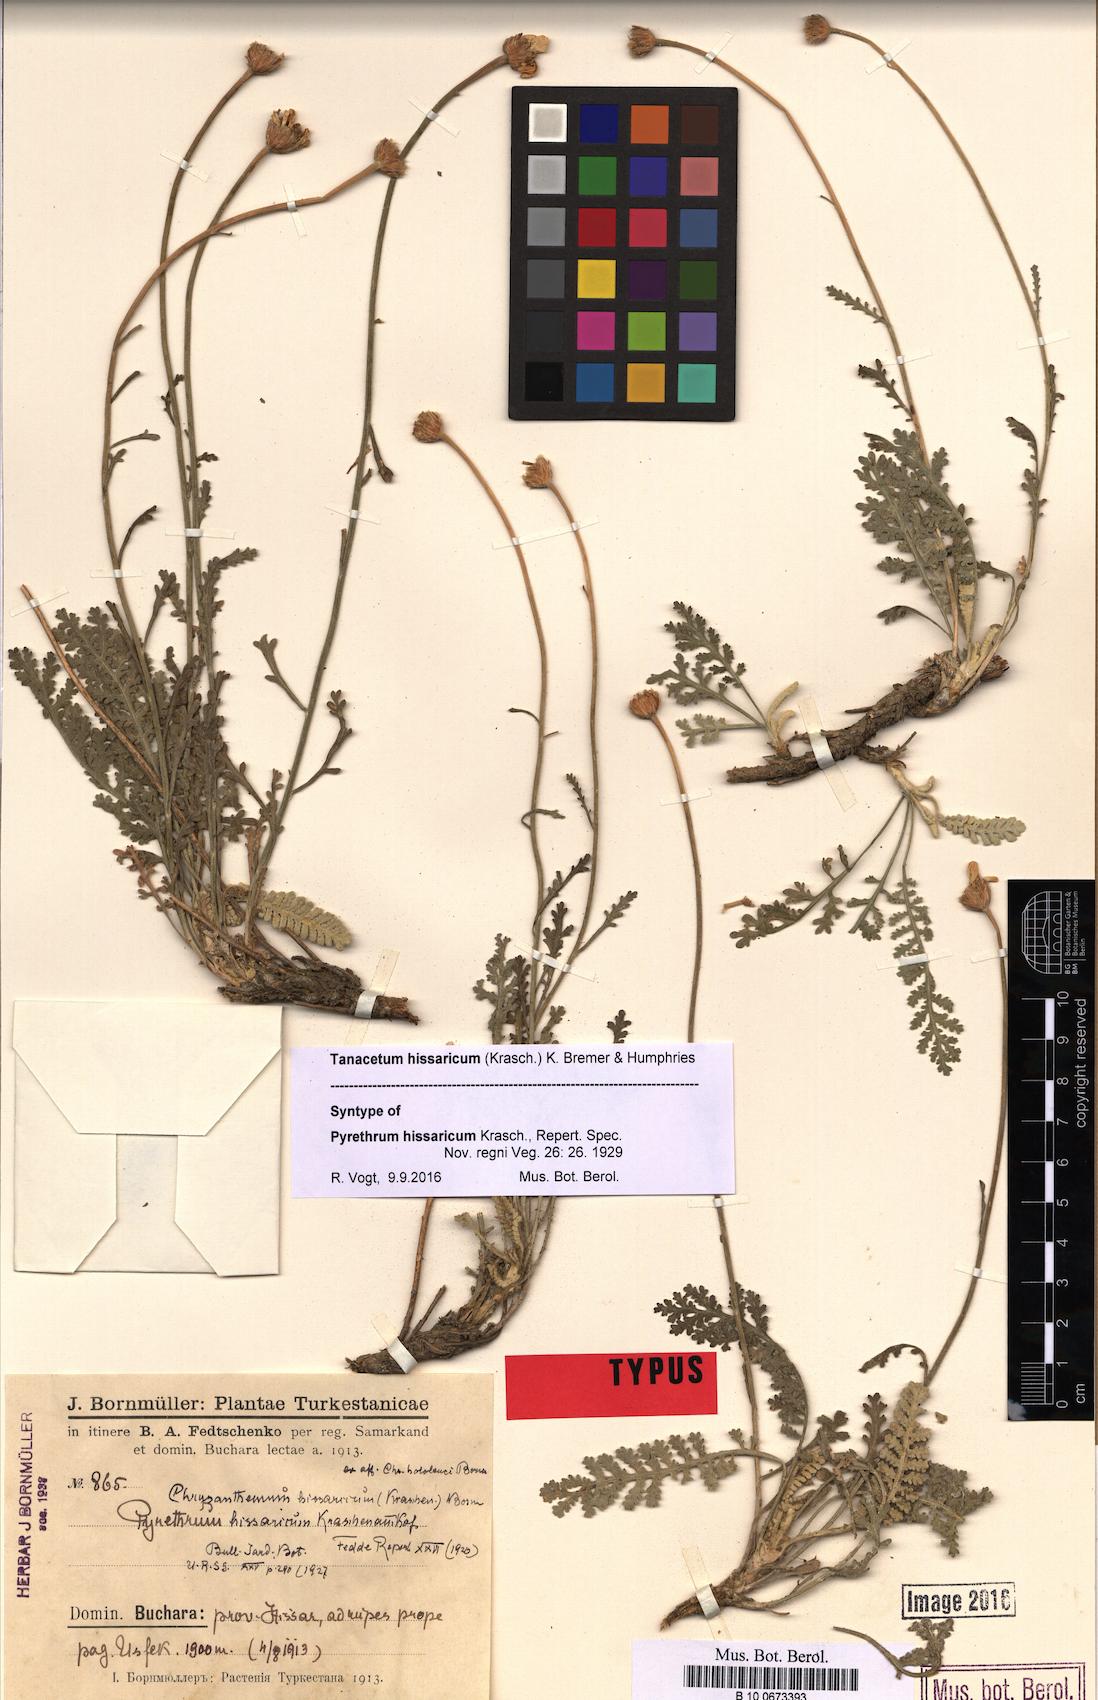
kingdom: Plantae
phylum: Tracheophyta
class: Magnoliopsida
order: Asterales
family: Asteraceae
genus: Tanacetum
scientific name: Tanacetum hissaricum
